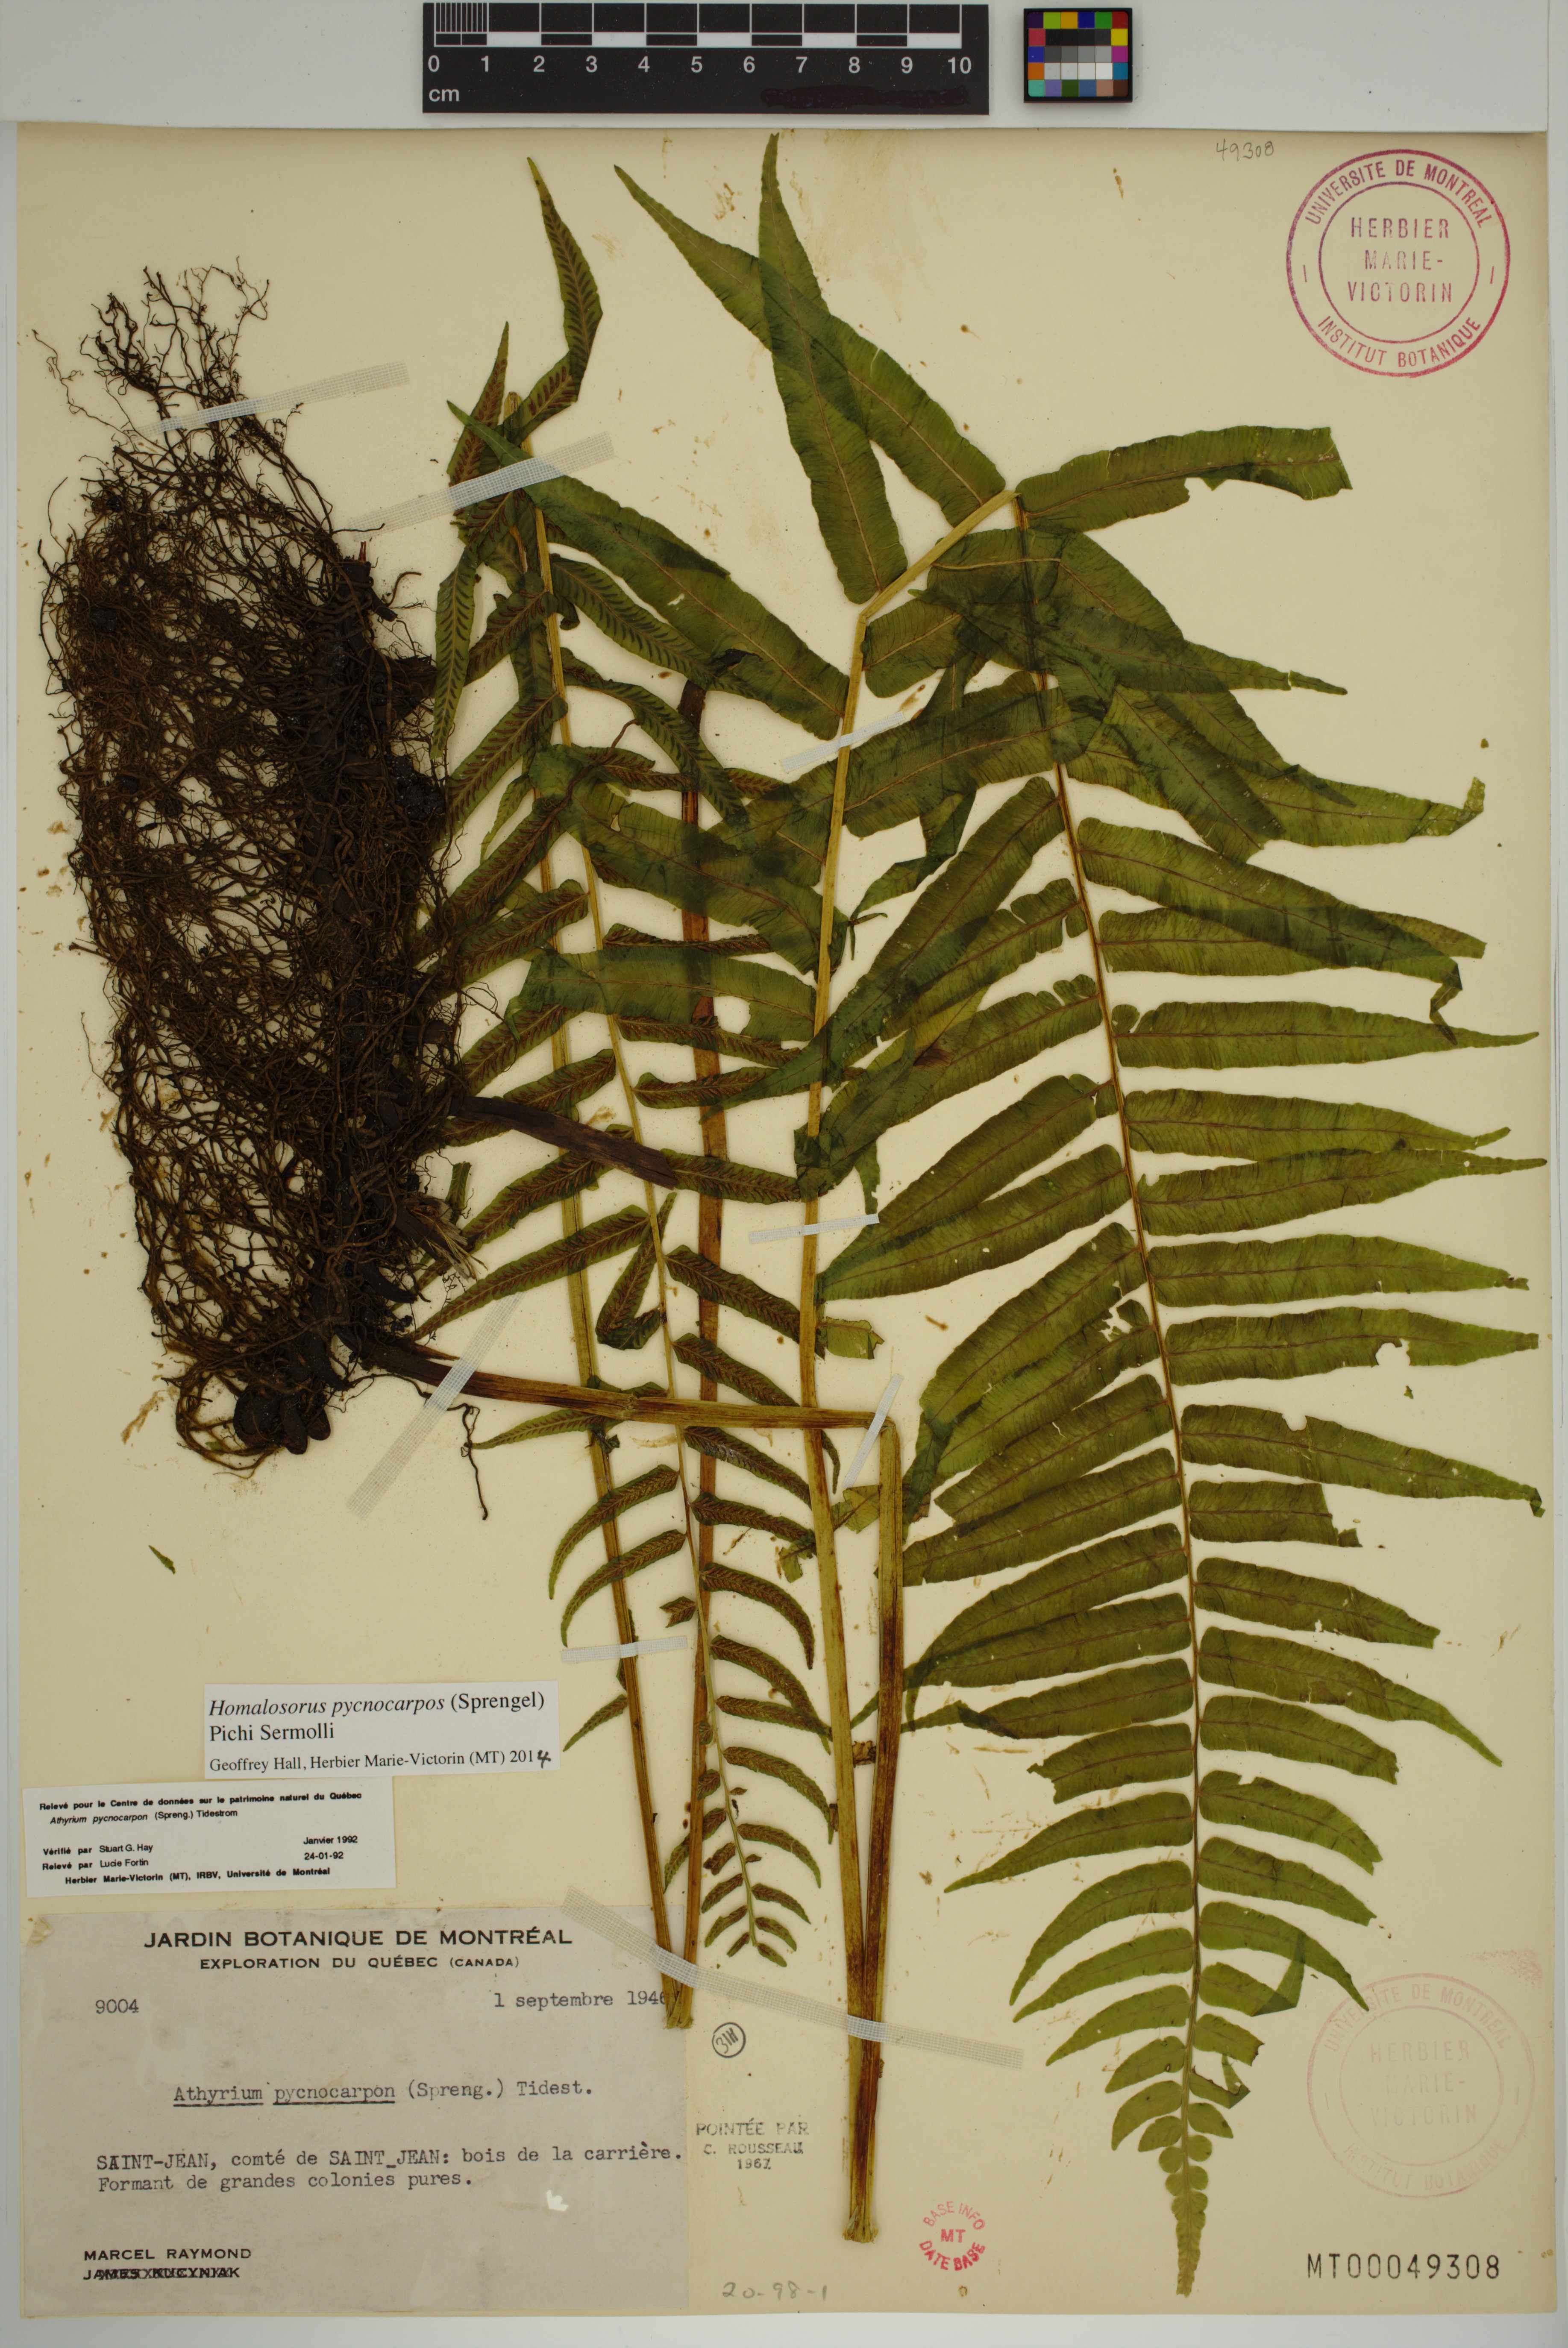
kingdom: Plantae
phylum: Tracheophyta
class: Polypodiopsida
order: Polypodiales
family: Diplaziopsidaceae
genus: Homalosorus
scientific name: Homalosorus pycnocarpos
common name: Glade fern
